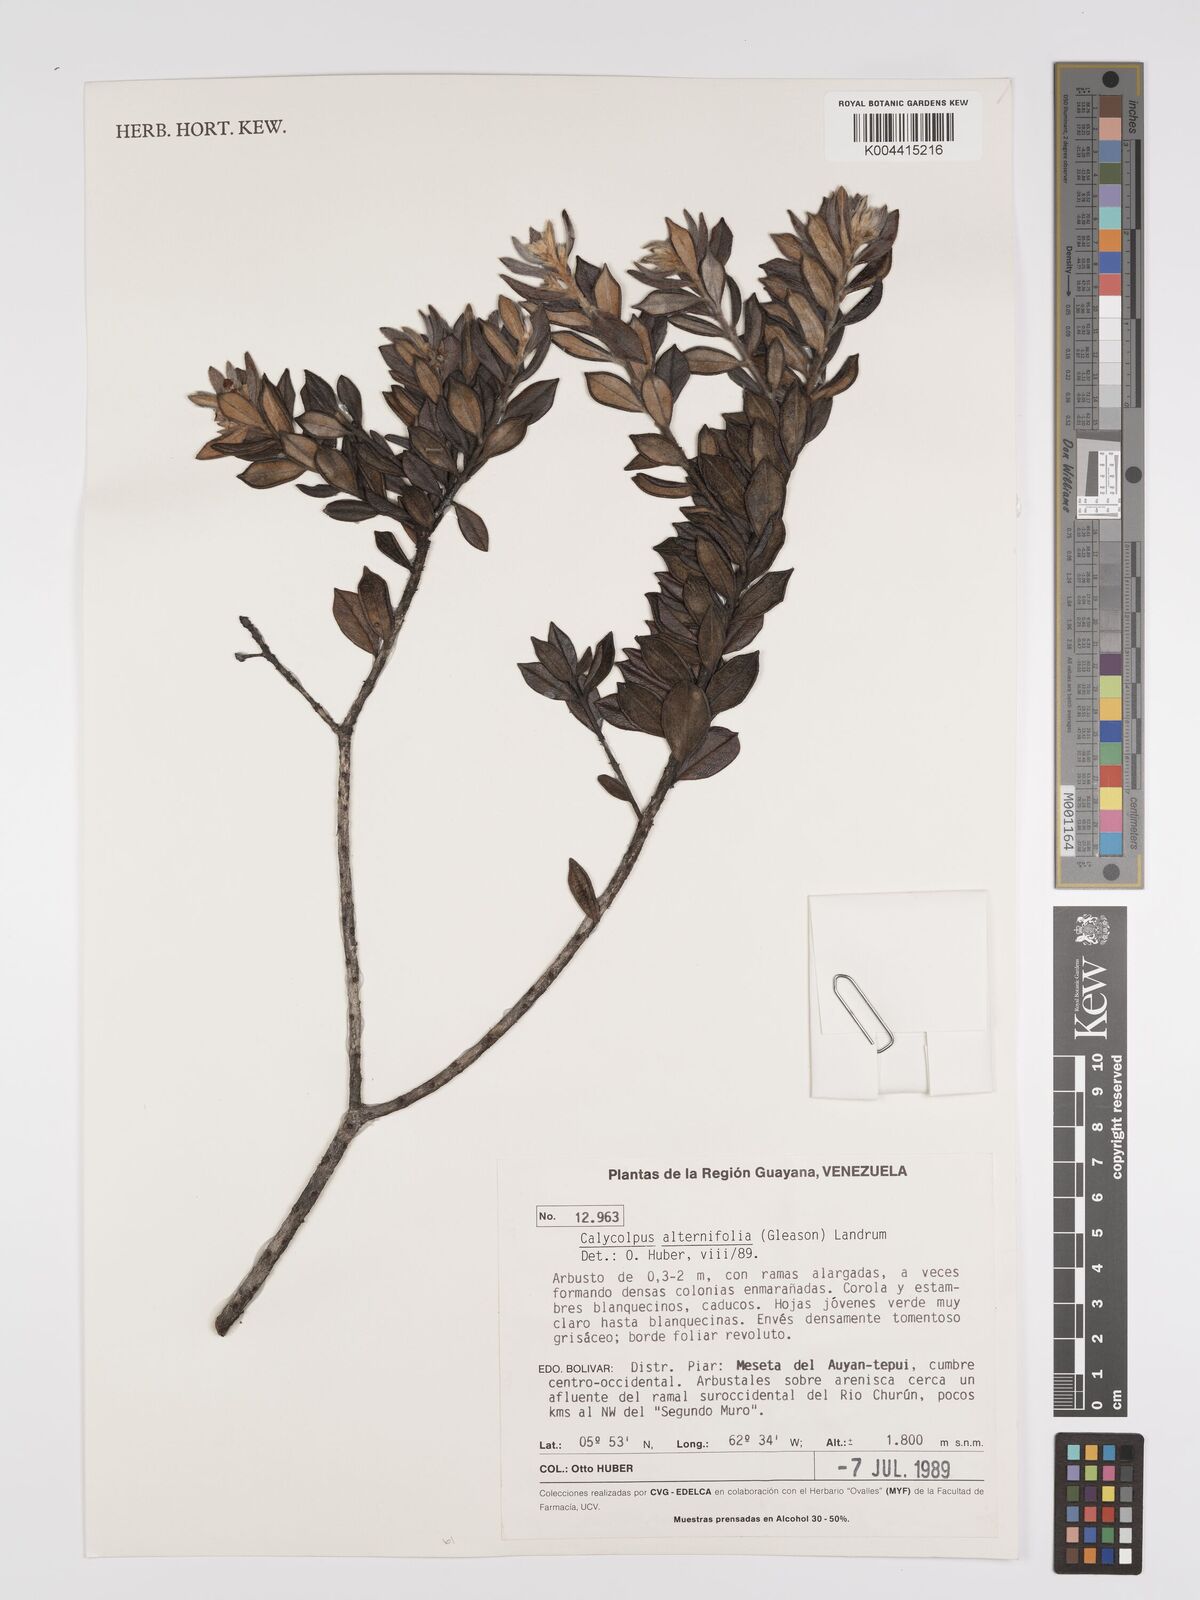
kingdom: Plantae
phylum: Tracheophyta
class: Magnoliopsida
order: Myrtales
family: Myrtaceae
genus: Calycolpus
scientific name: Calycolpus alternifolius
